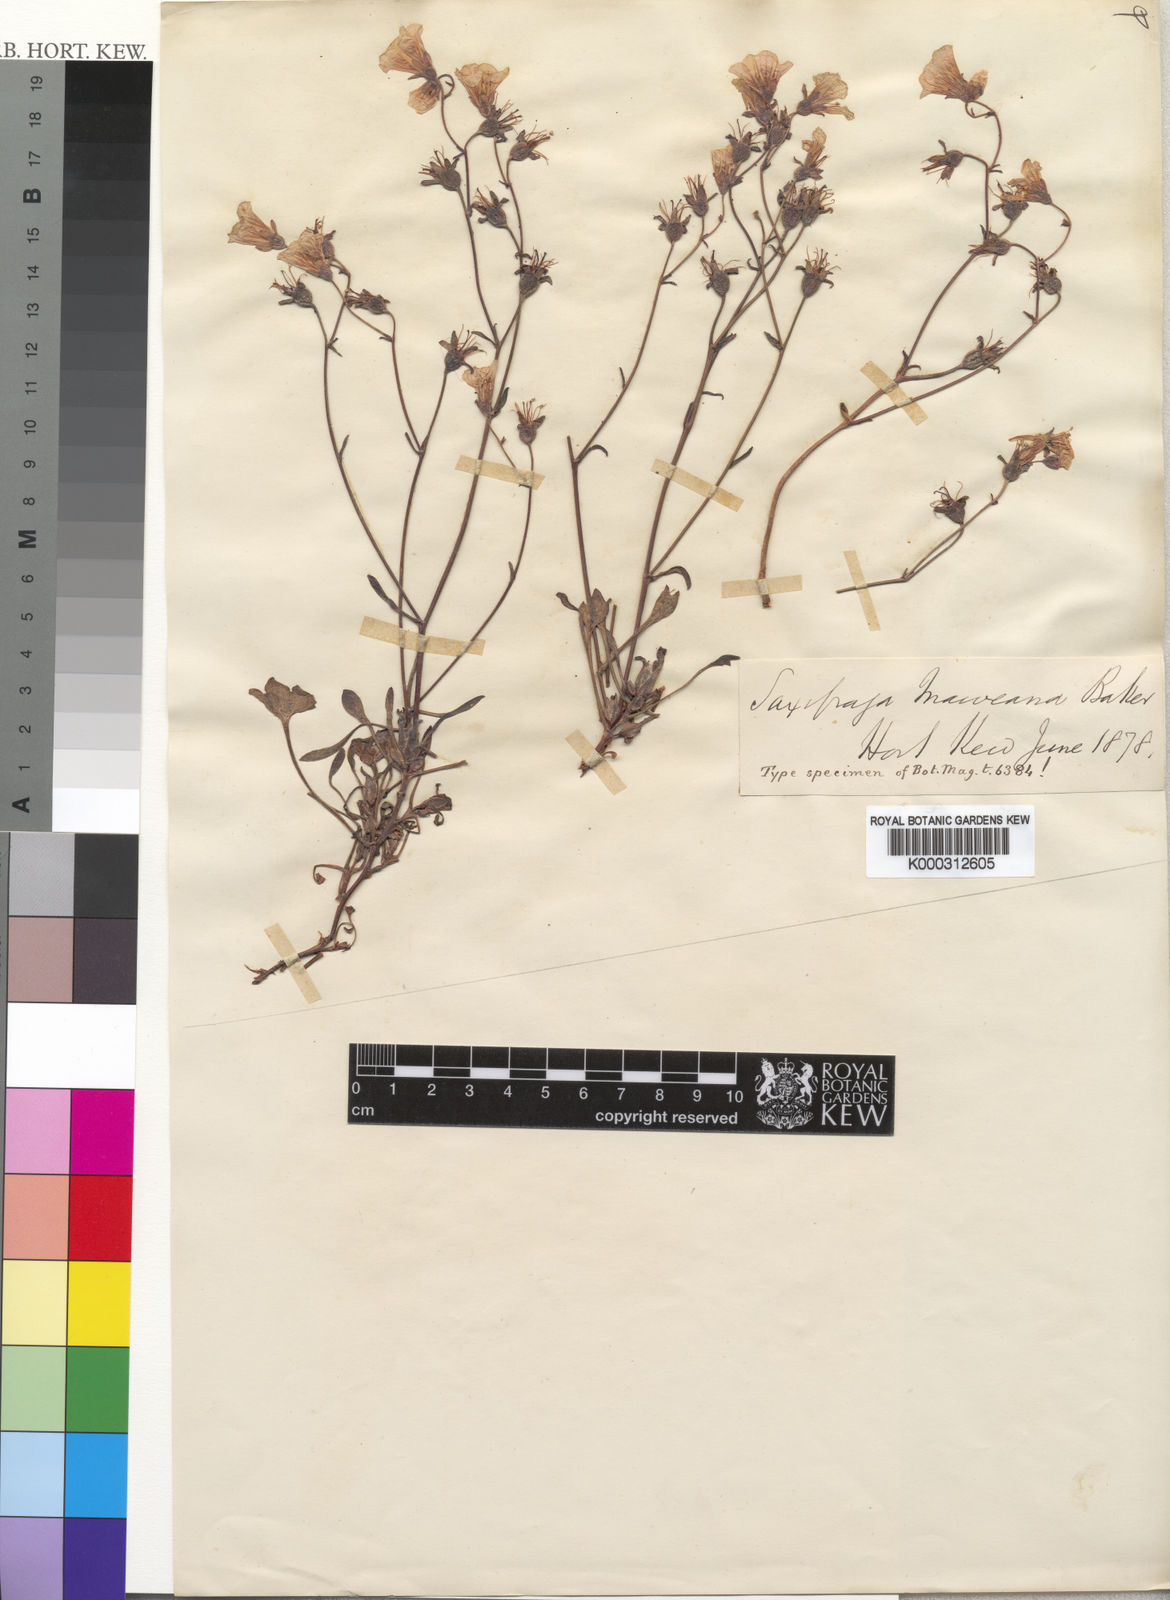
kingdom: Plantae
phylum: Tracheophyta
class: Magnoliopsida
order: Saxifragales
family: Saxifragaceae
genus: Saxifraga
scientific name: Saxifraga maweana
